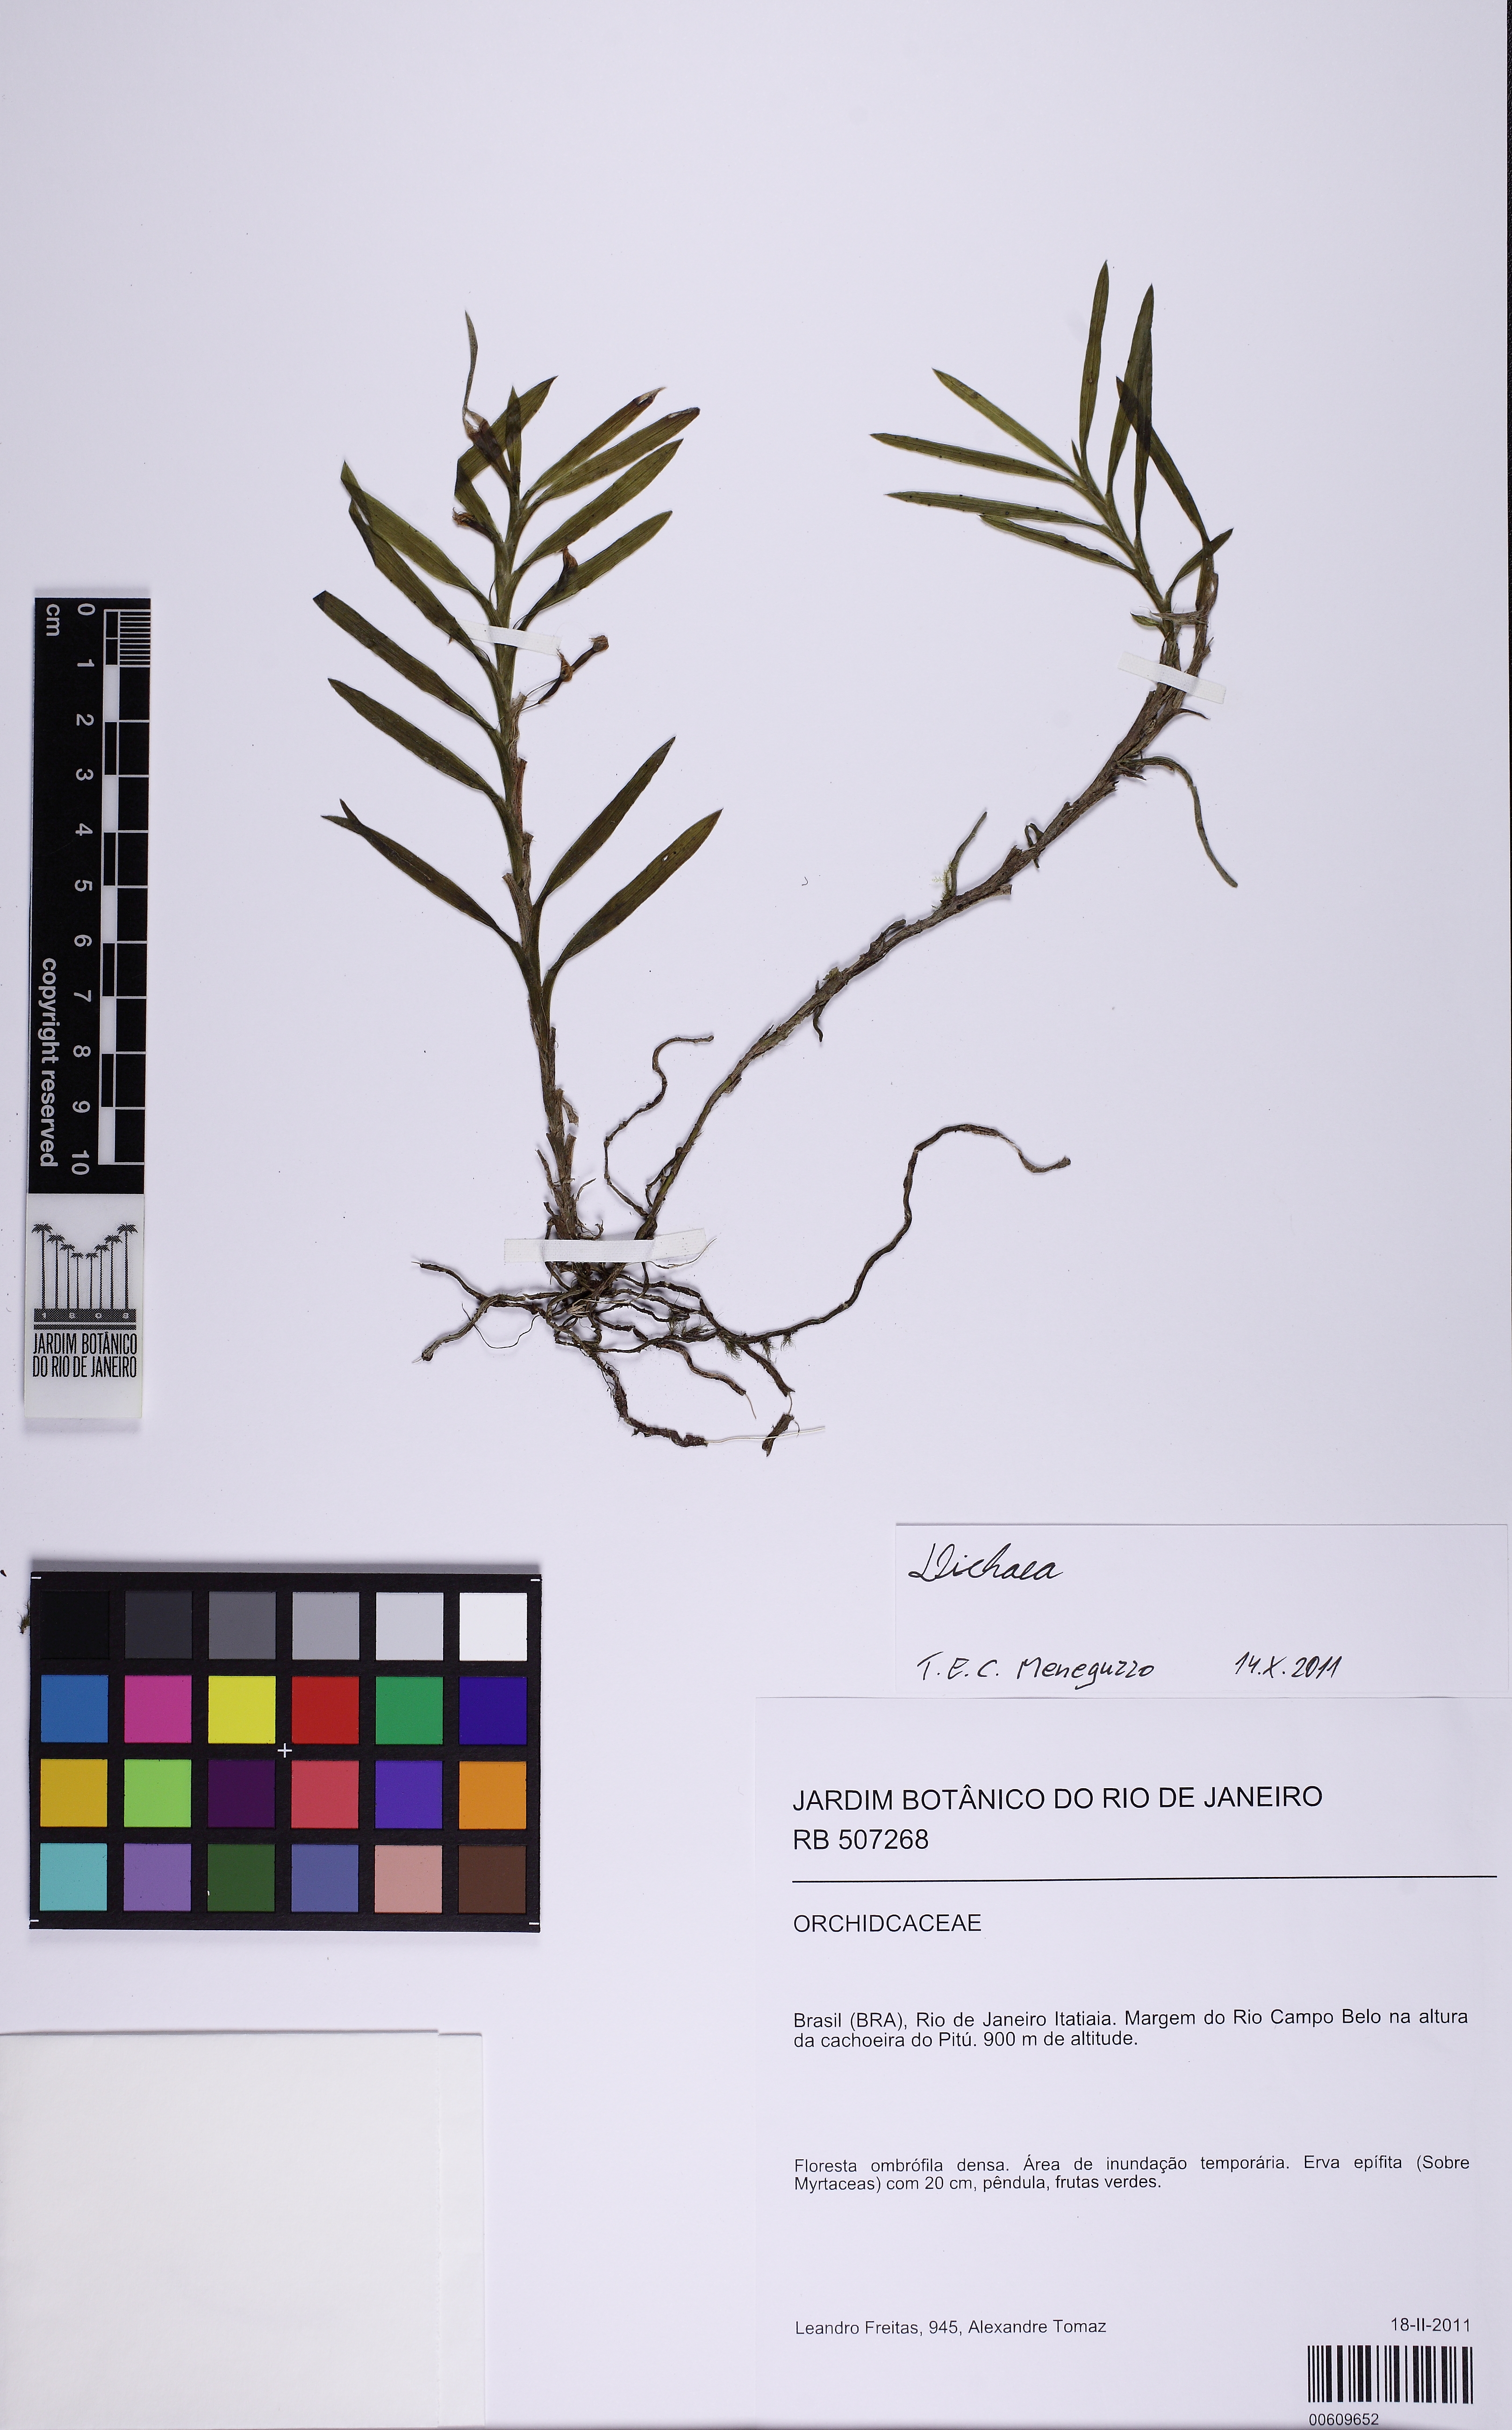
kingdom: Plantae
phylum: Tracheophyta
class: Liliopsida
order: Asparagales
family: Orchidaceae
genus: Dichaea
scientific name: Dichaea
